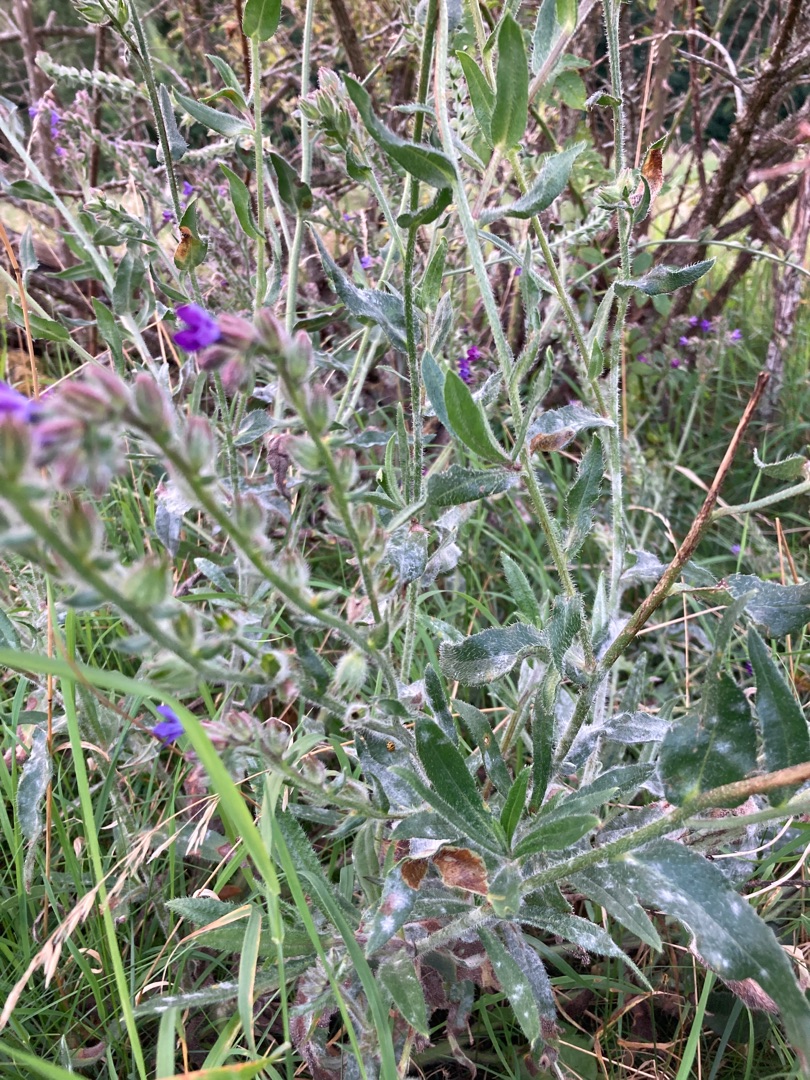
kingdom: Plantae
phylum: Tracheophyta
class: Magnoliopsida
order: Boraginales
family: Boraginaceae
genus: Anchusa
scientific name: Anchusa officinalis
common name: Læge-oksetunge
